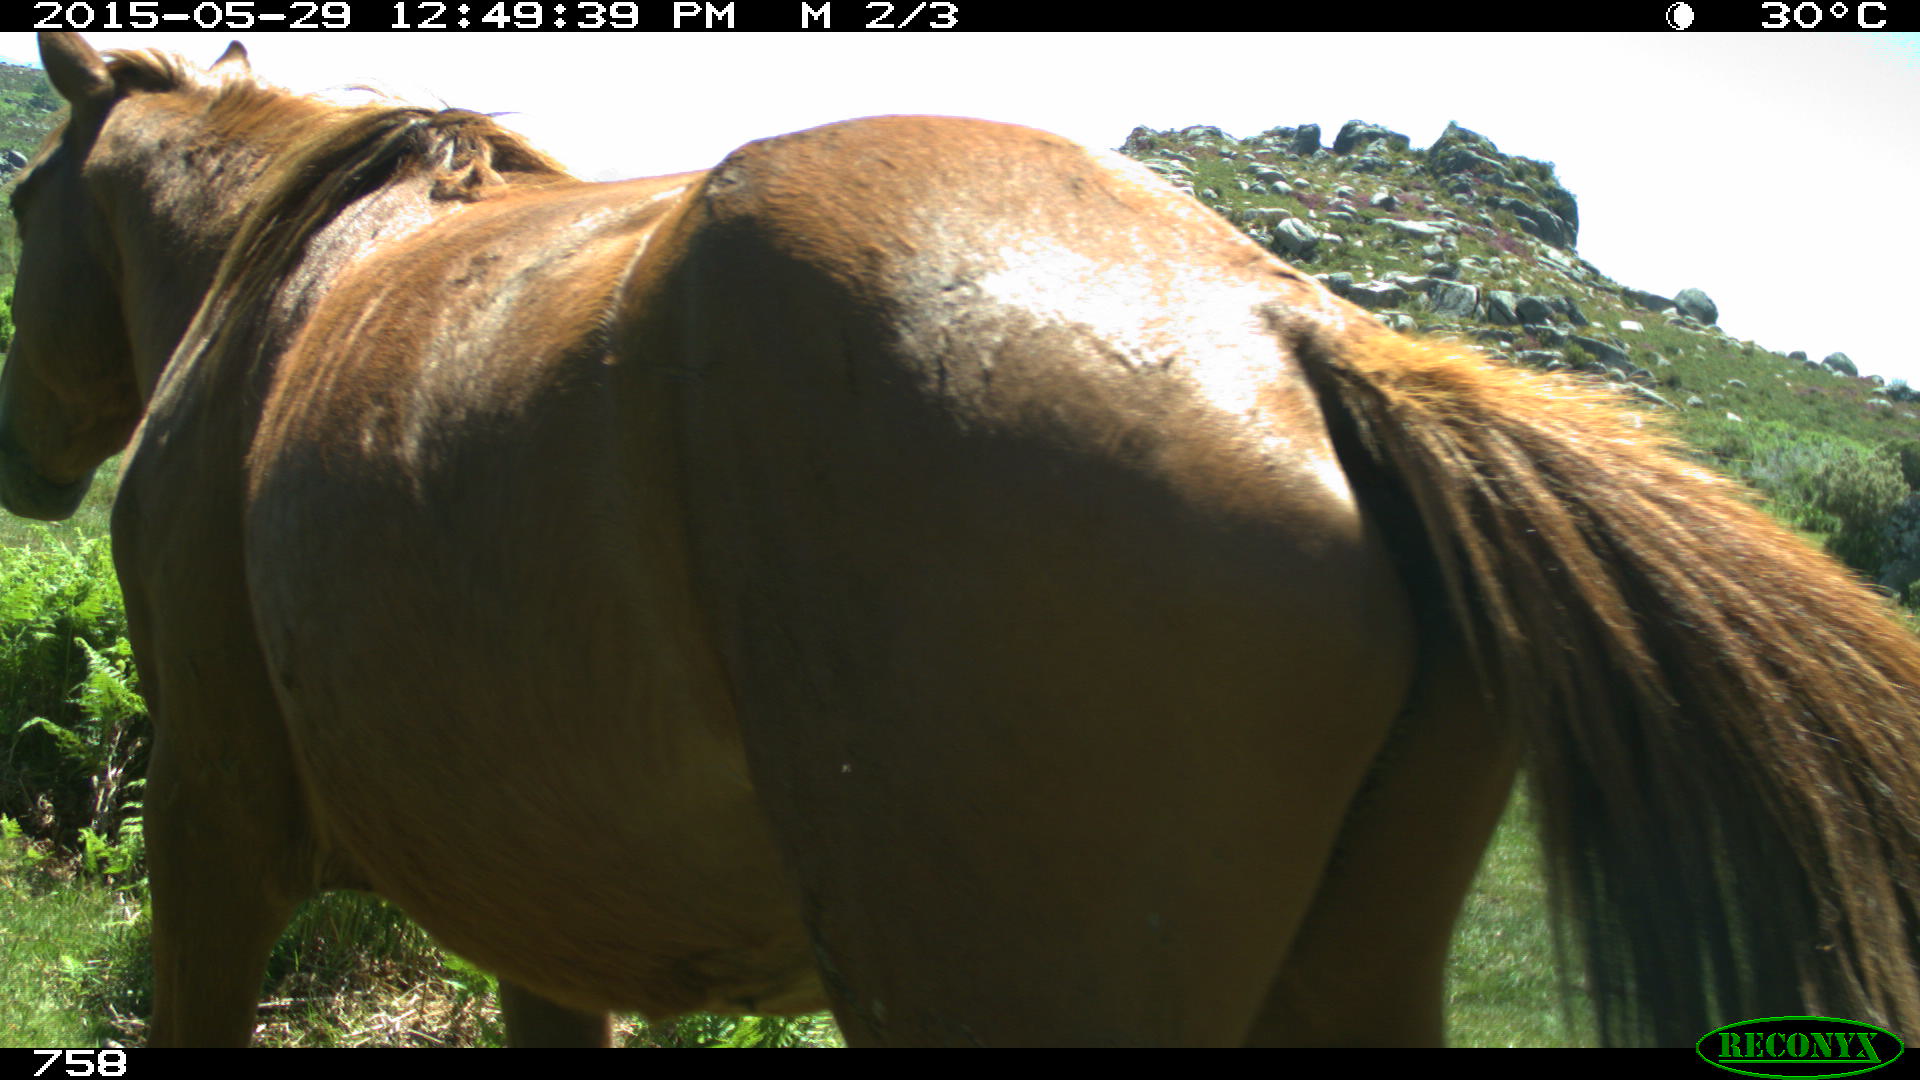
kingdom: Animalia
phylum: Chordata
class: Mammalia
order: Perissodactyla
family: Equidae
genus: Equus
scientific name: Equus caballus
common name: Horse
